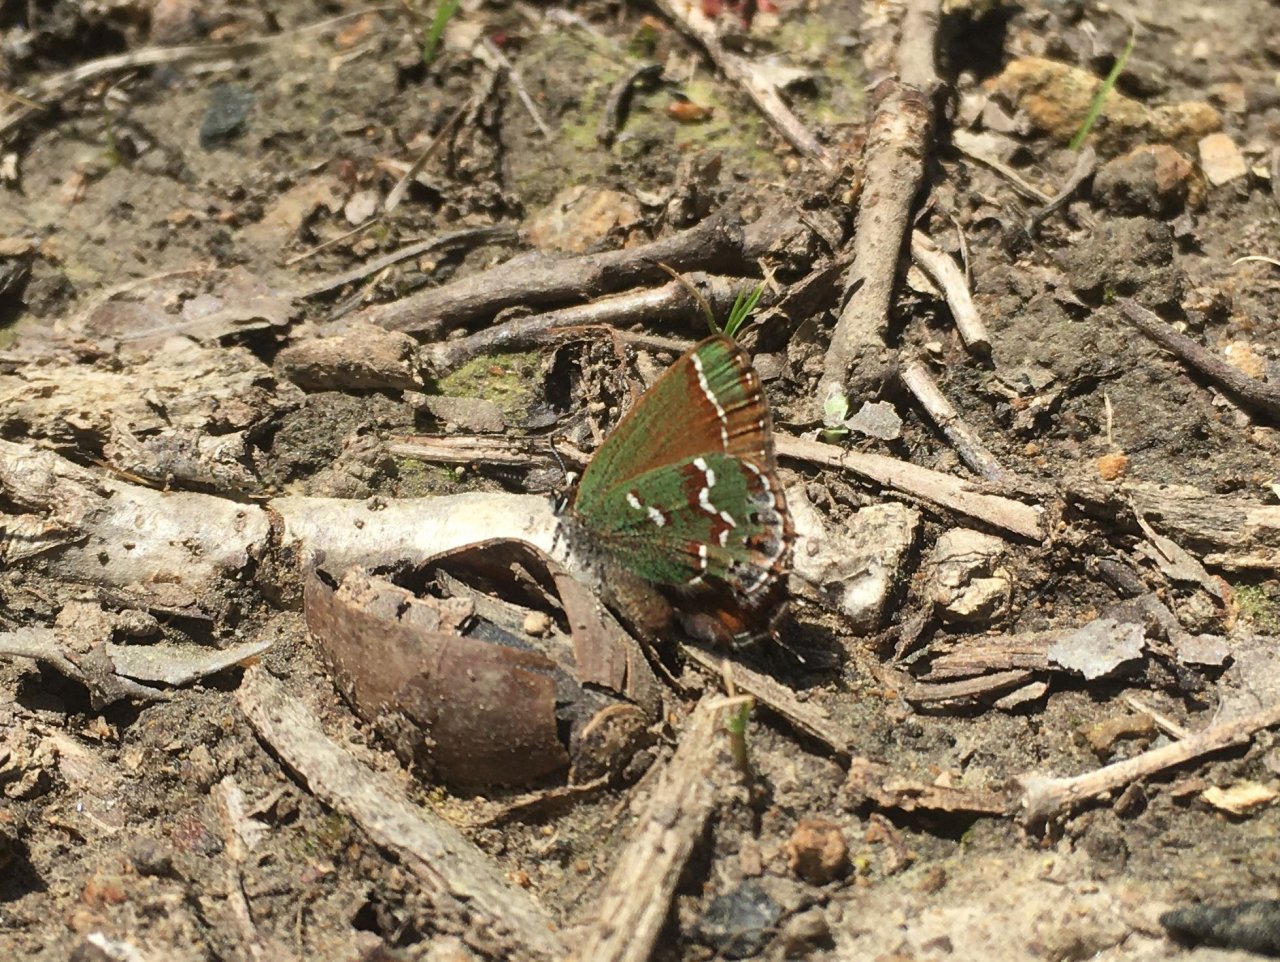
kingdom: Animalia
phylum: Arthropoda
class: Insecta
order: Lepidoptera
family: Lycaenidae
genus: Mitoura
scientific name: Mitoura gryneus
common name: Juniper Hairstreak
